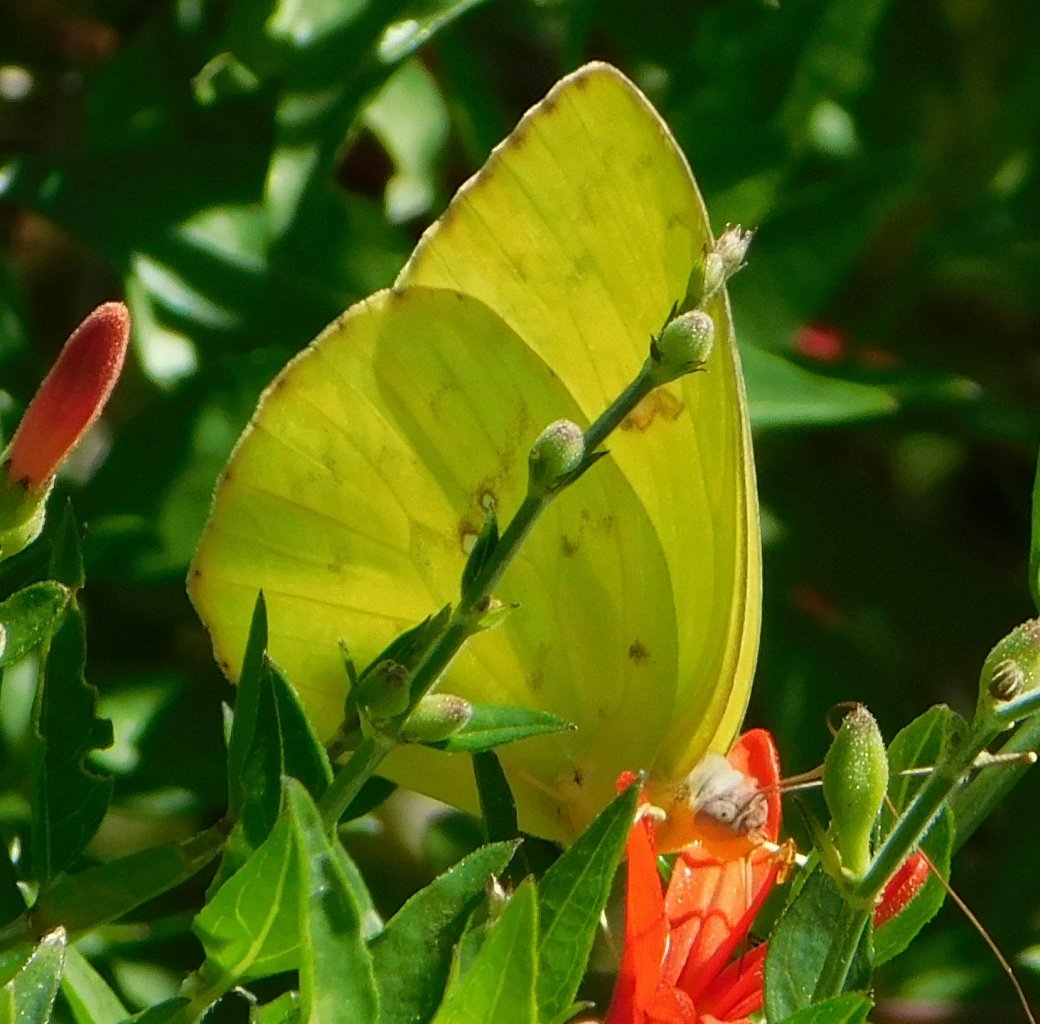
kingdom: Animalia
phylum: Arthropoda
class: Insecta
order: Lepidoptera
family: Pieridae
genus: Phoebis
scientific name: Phoebis sennae
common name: Cloudless Sulphur
